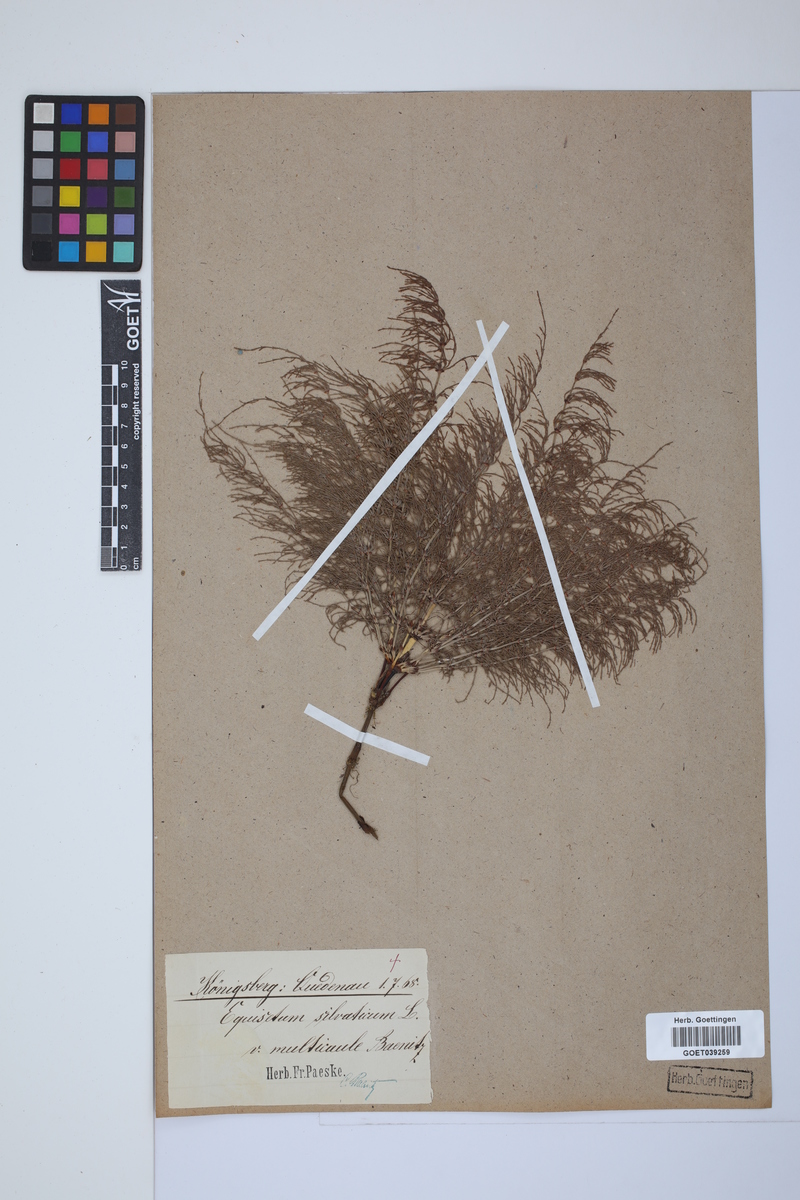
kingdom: Plantae
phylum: Tracheophyta
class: Polypodiopsida
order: Equisetales
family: Equisetaceae
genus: Equisetum
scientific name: Equisetum sylvaticum
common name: Wood horsetail
